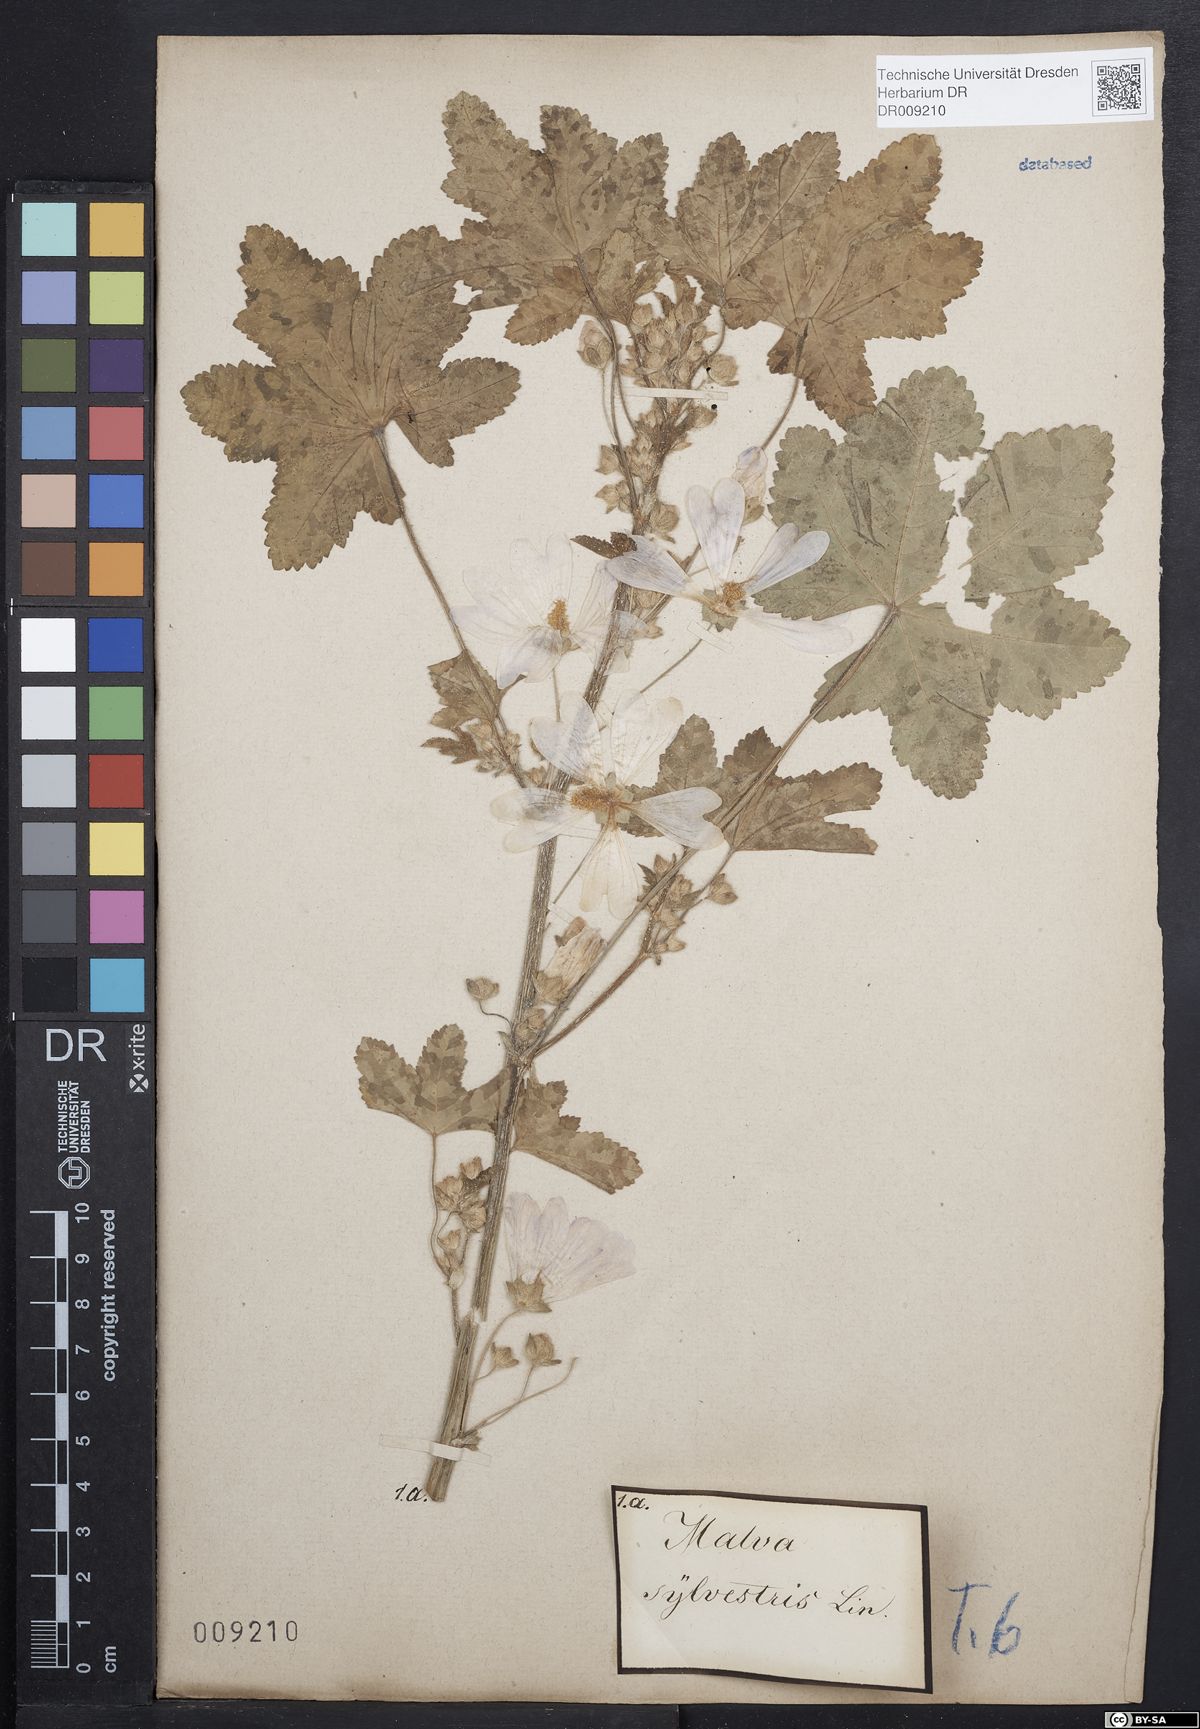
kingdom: Plantae
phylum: Tracheophyta
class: Magnoliopsida
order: Malvales
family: Malvaceae
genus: Malva
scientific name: Malva sylvestris
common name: Common mallow
